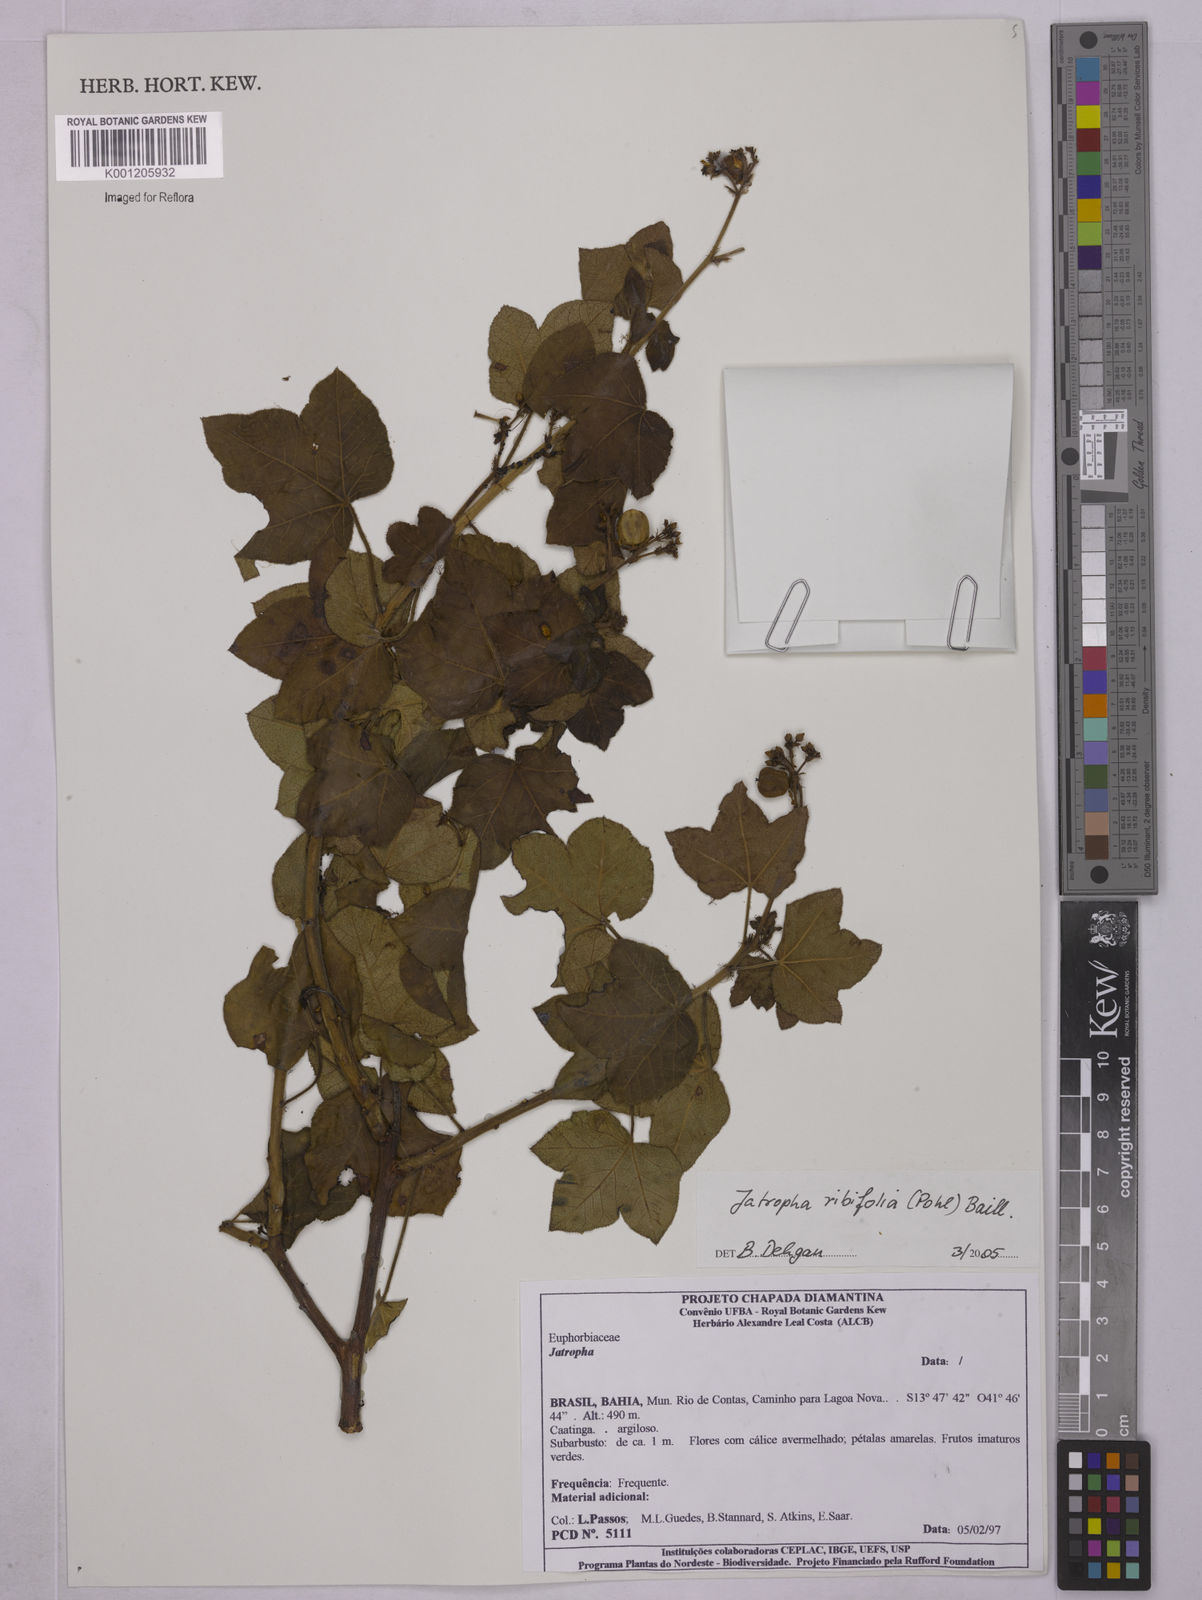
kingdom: Plantae
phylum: Tracheophyta
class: Magnoliopsida
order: Malpighiales
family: Euphorbiaceae
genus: Jatropha
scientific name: Jatropha ribifolia
